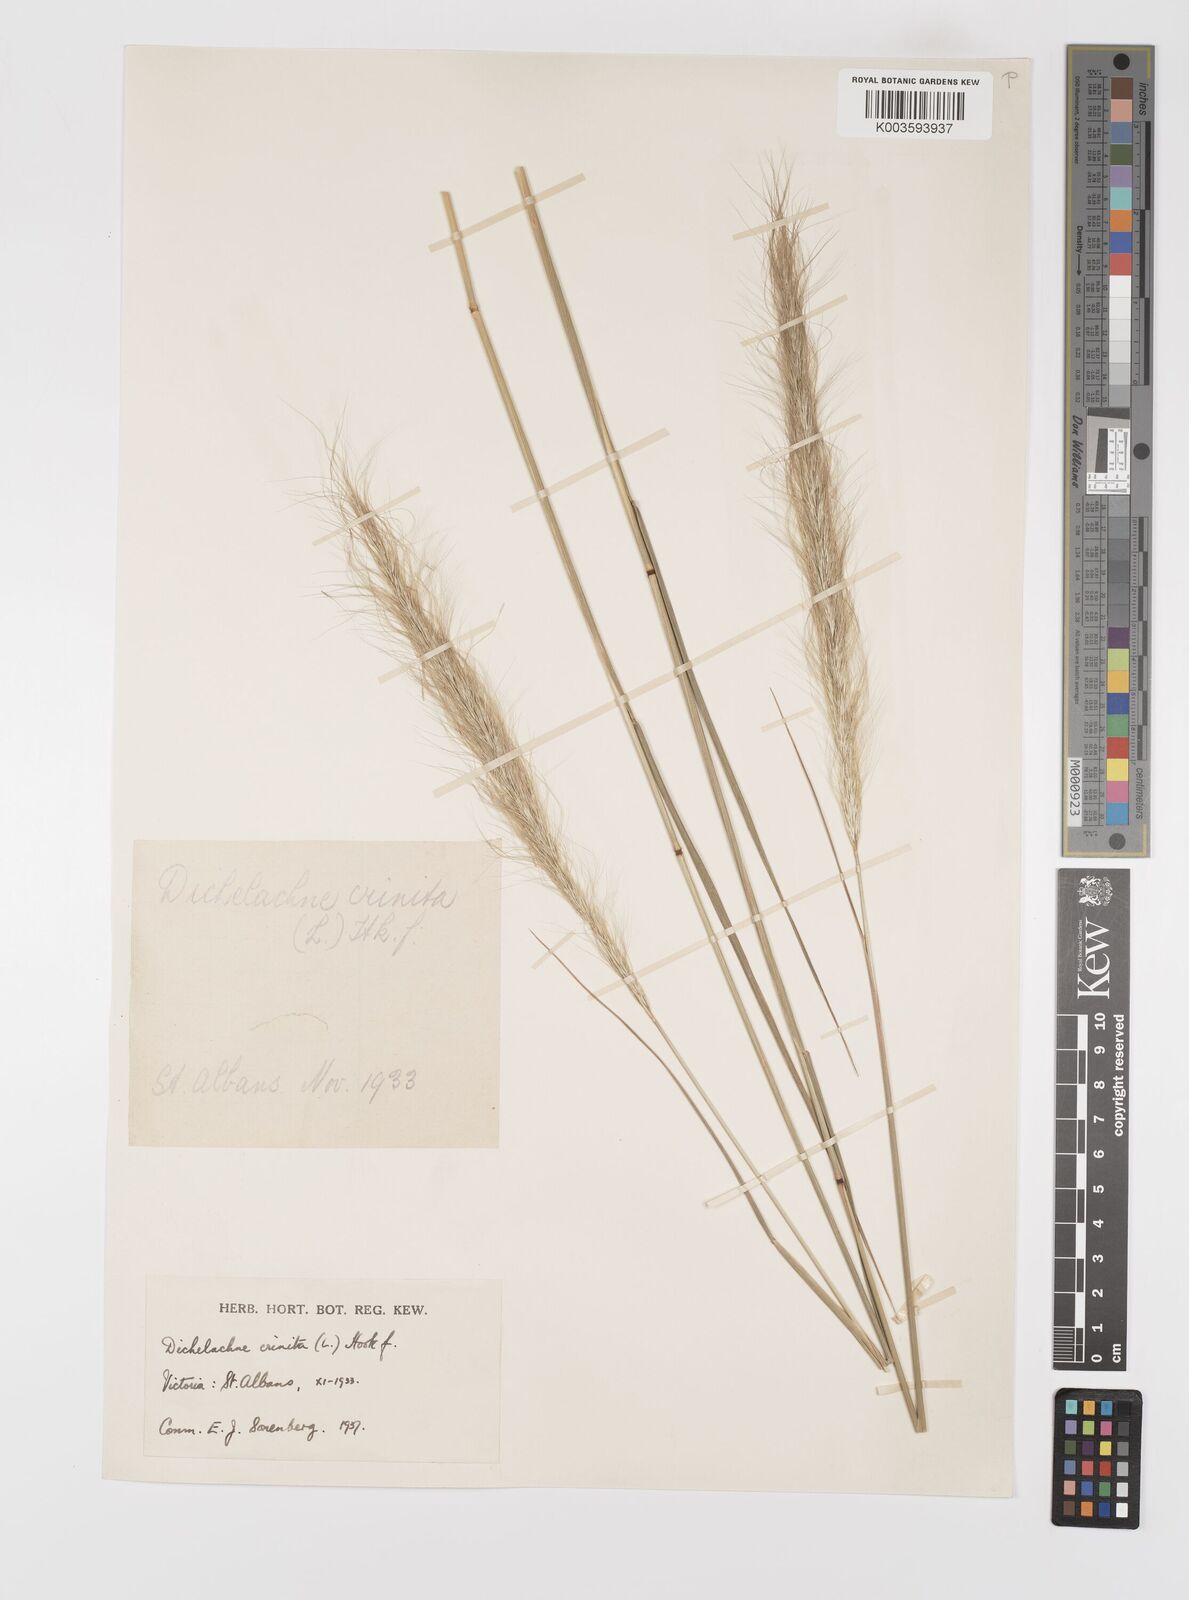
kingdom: Plantae
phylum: Tracheophyta
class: Liliopsida
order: Poales
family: Poaceae
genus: Dichelachne
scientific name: Dichelachne crinita
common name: Clovenfoot plumegrass
